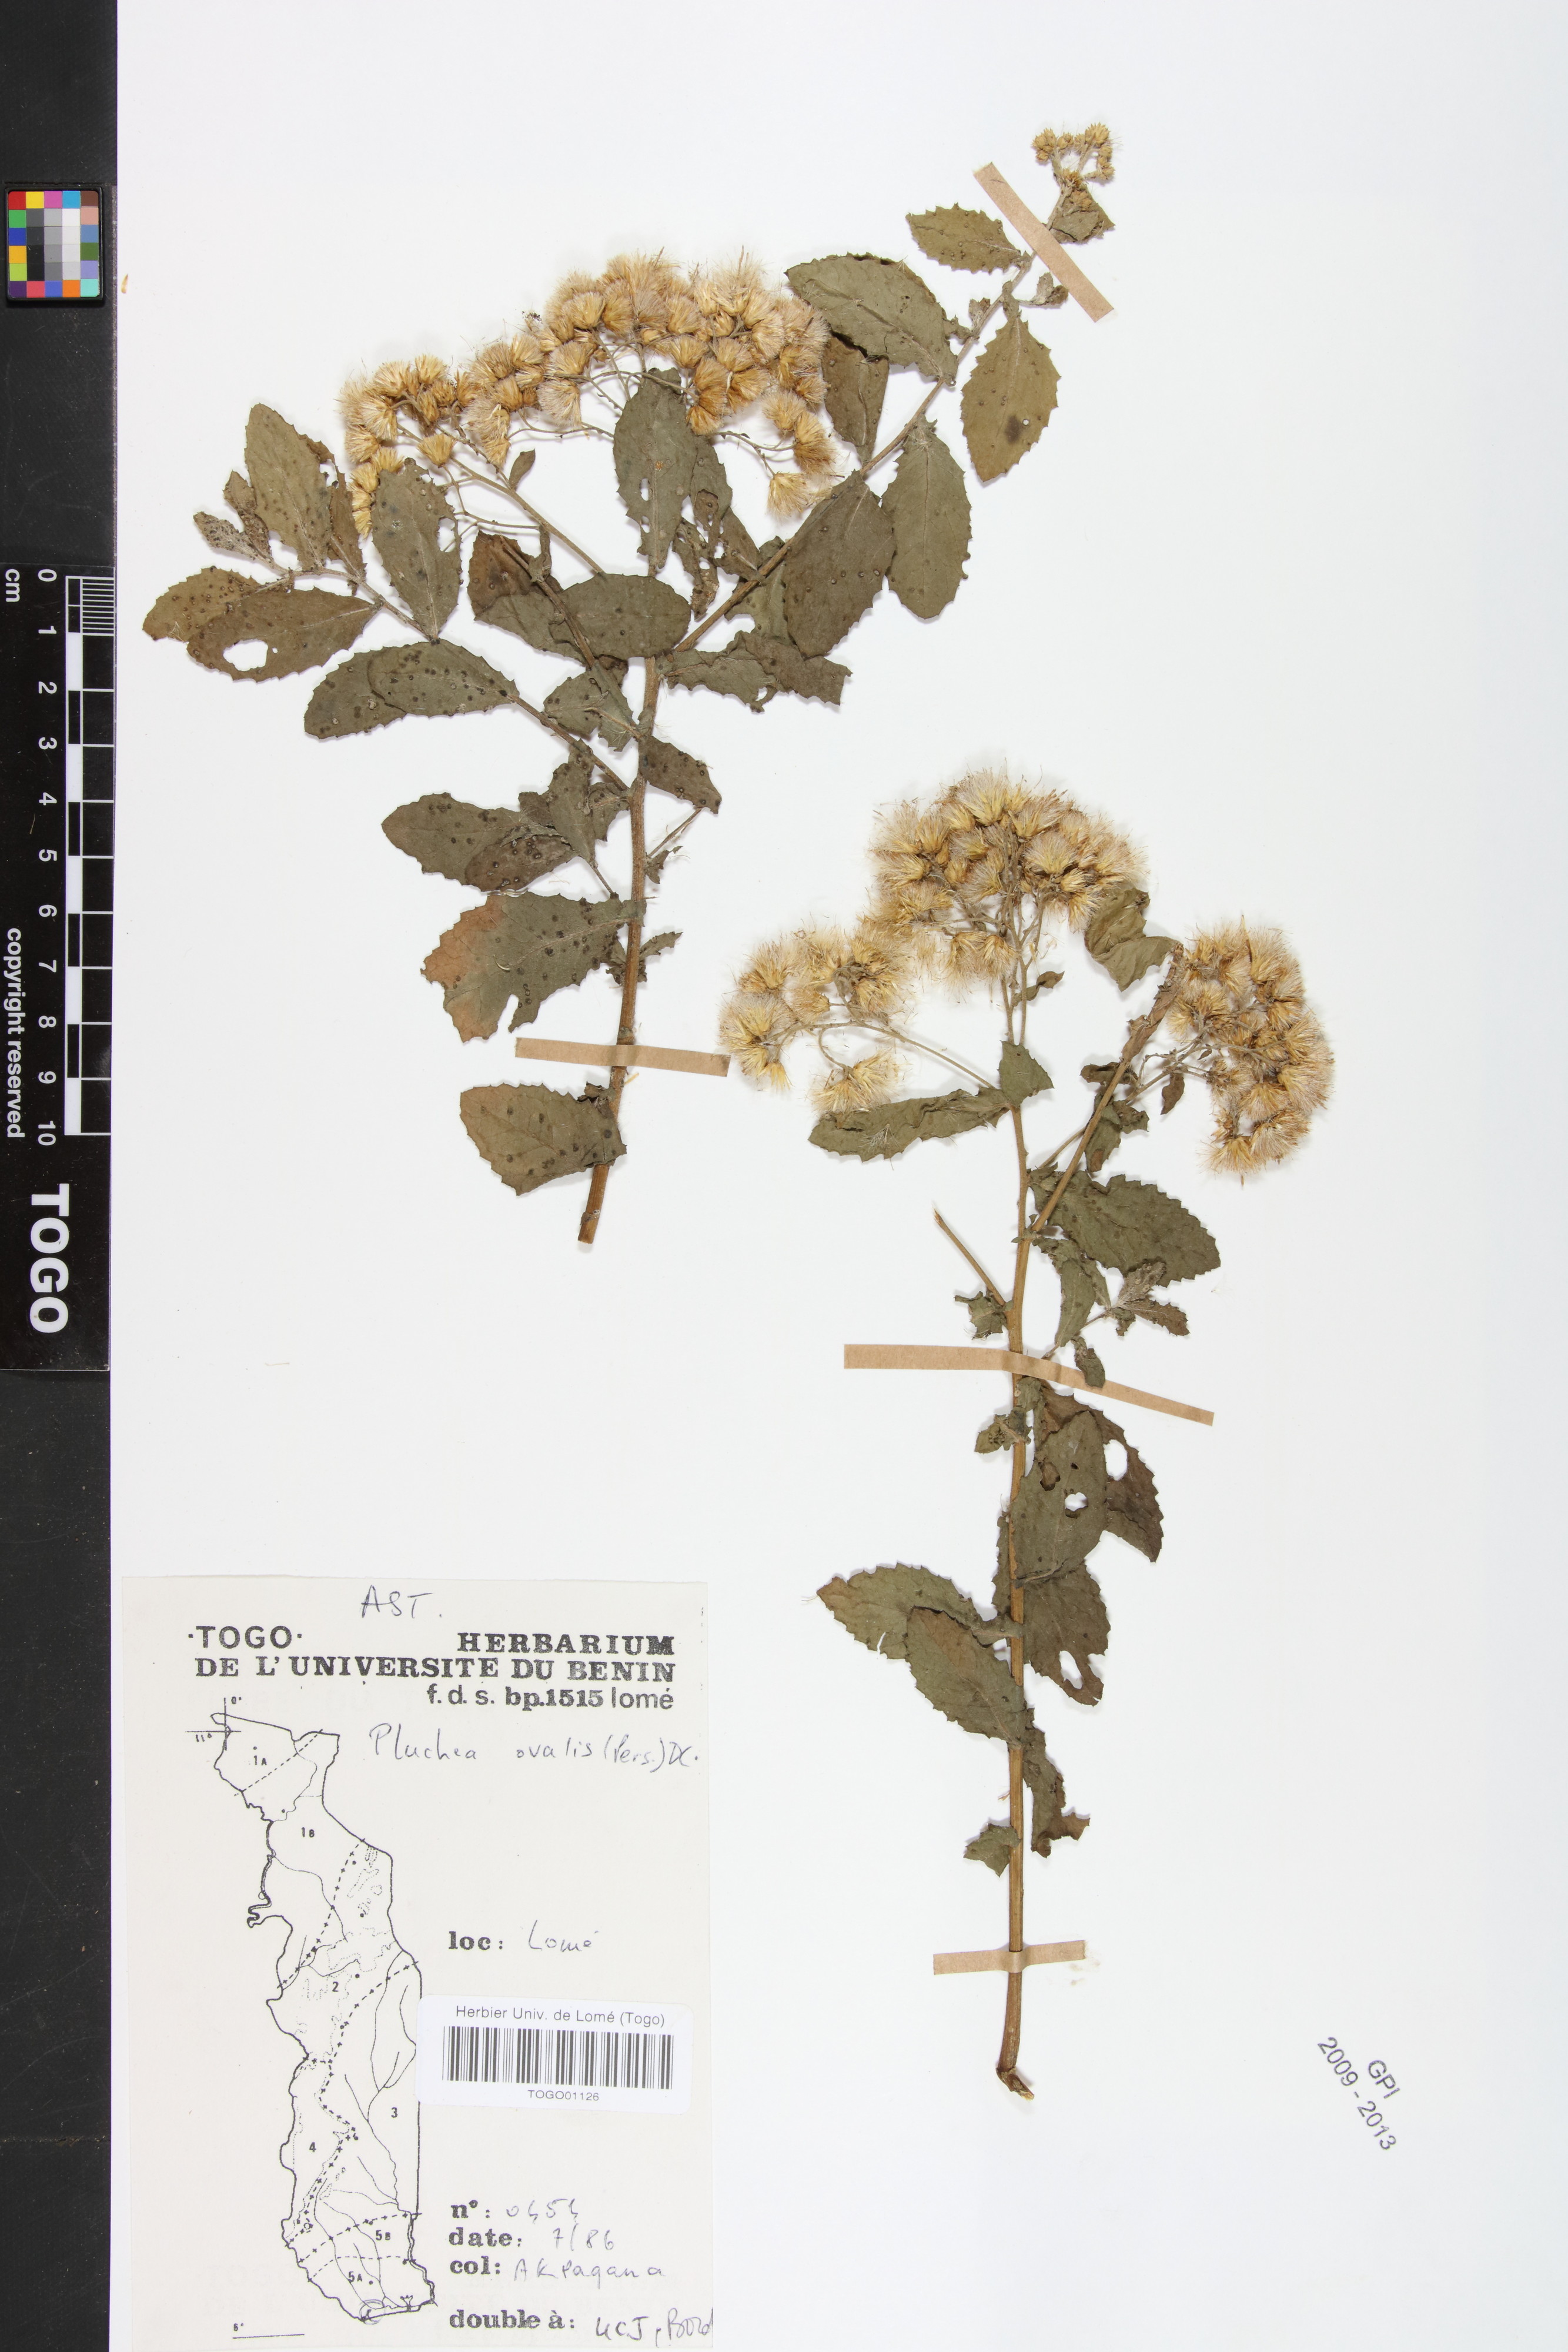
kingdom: Plantae
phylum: Tracheophyta
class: Magnoliopsida
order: Asterales
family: Asteraceae
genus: Pluchea
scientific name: Pluchea ovalis
